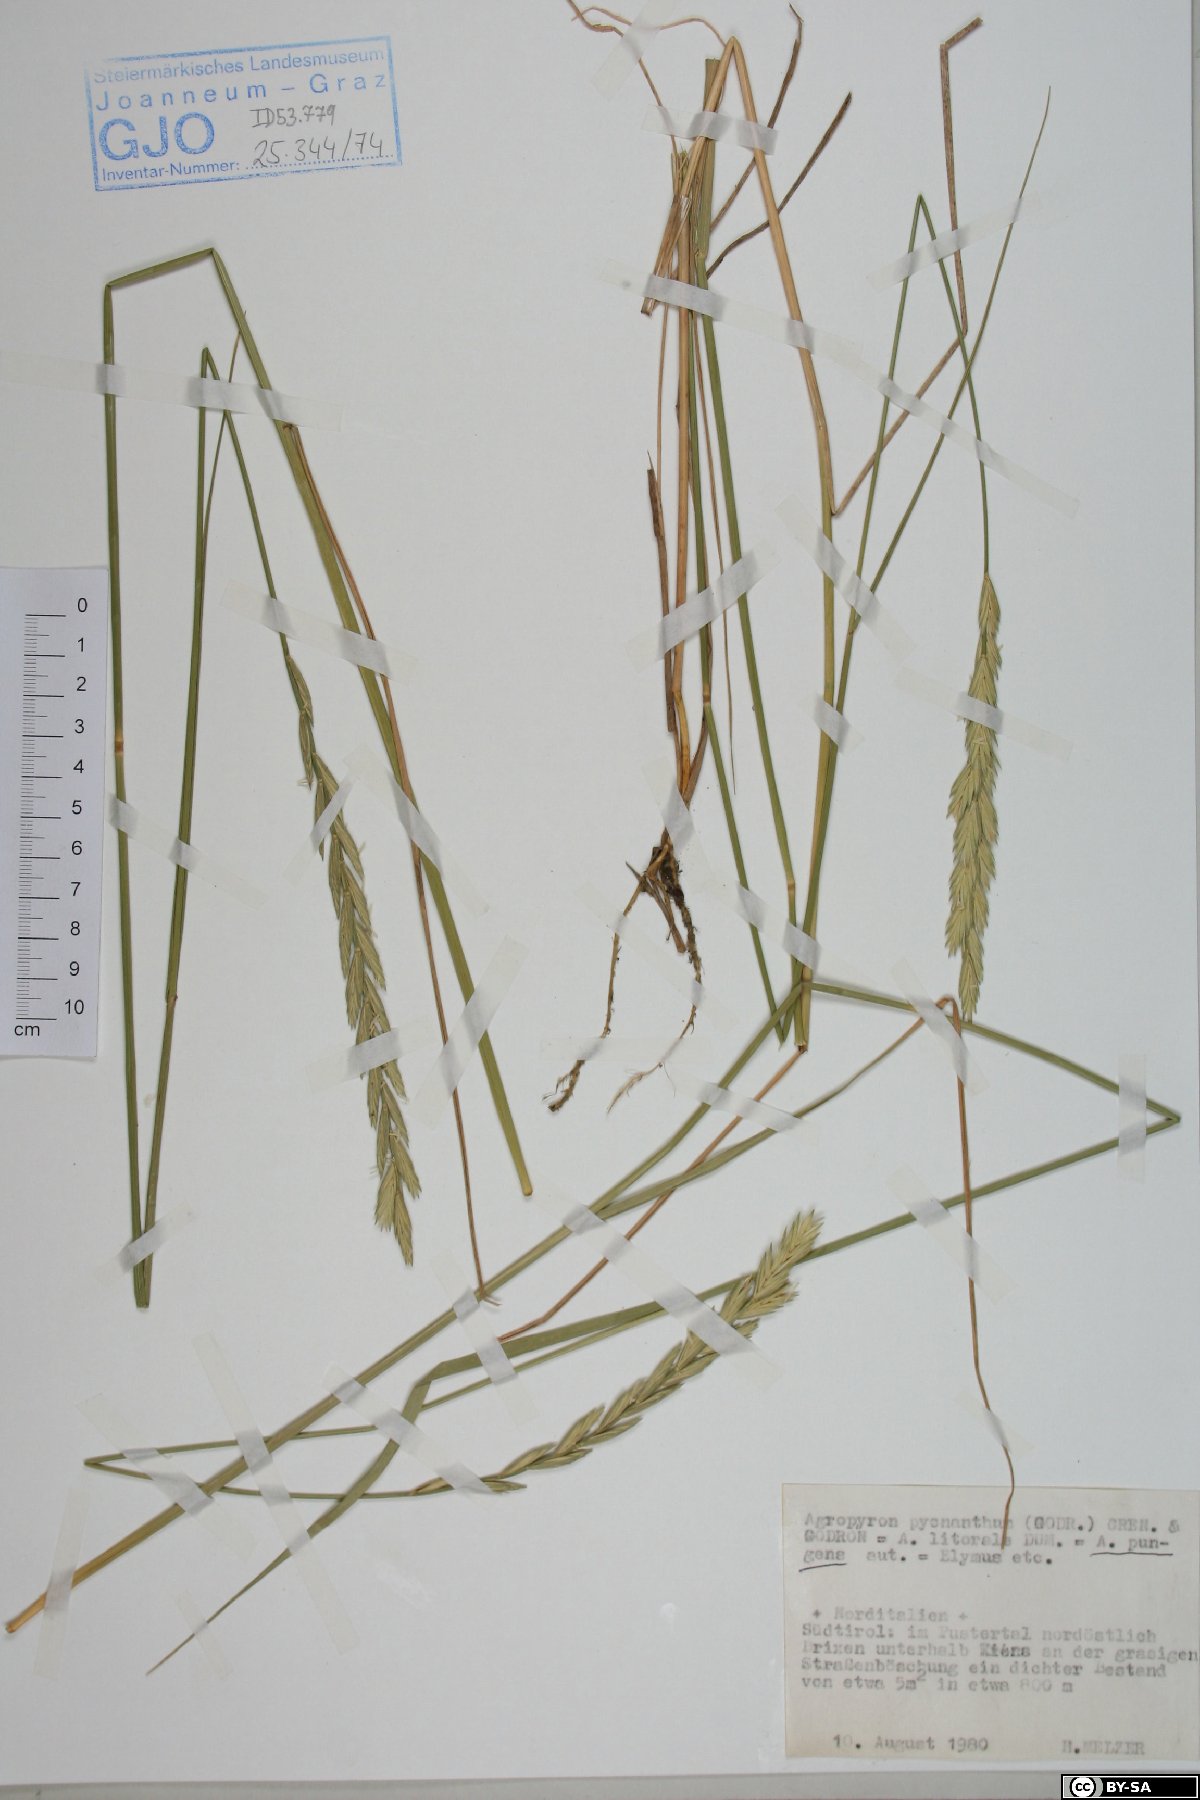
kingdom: Plantae
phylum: Tracheophyta
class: Liliopsida
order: Poales
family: Poaceae
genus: Thinopyrum
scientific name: Thinopyrum acutum
